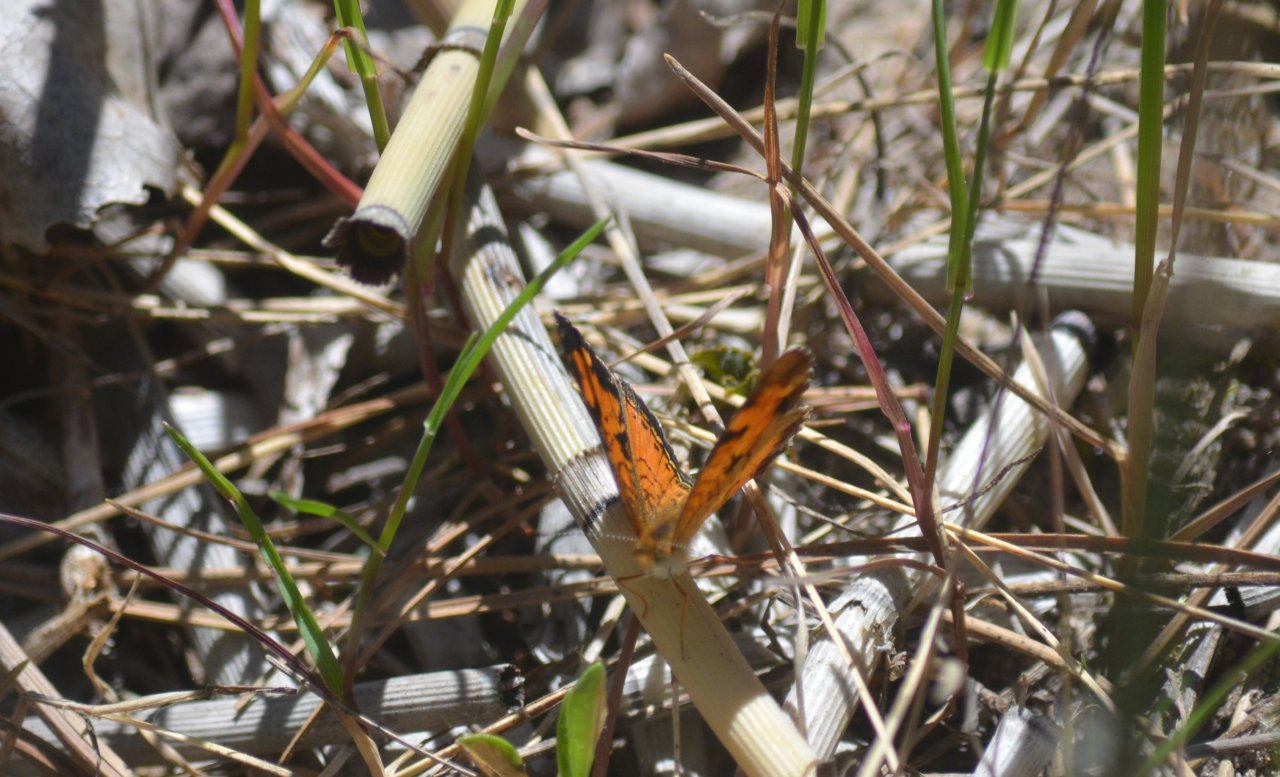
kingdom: Animalia
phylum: Arthropoda
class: Insecta
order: Lepidoptera
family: Nymphalidae
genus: Phyciodes
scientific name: Phyciodes
